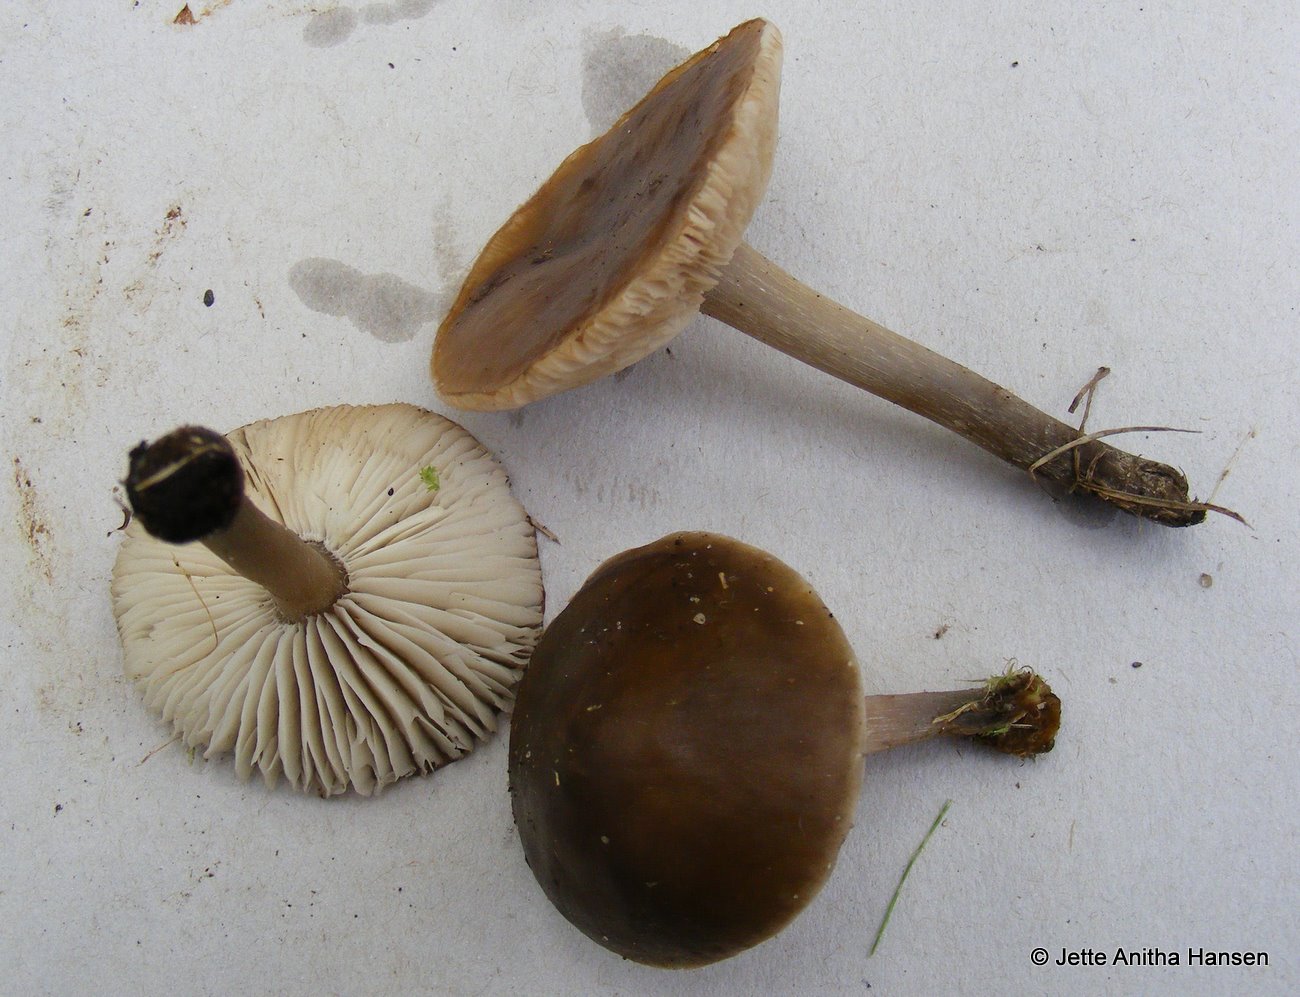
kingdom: Fungi
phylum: Basidiomycota
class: Agaricomycetes
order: Agaricales
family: Tricholomataceae
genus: Melanoleuca
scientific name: Melanoleuca polioleuca
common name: almindelig munkehat
